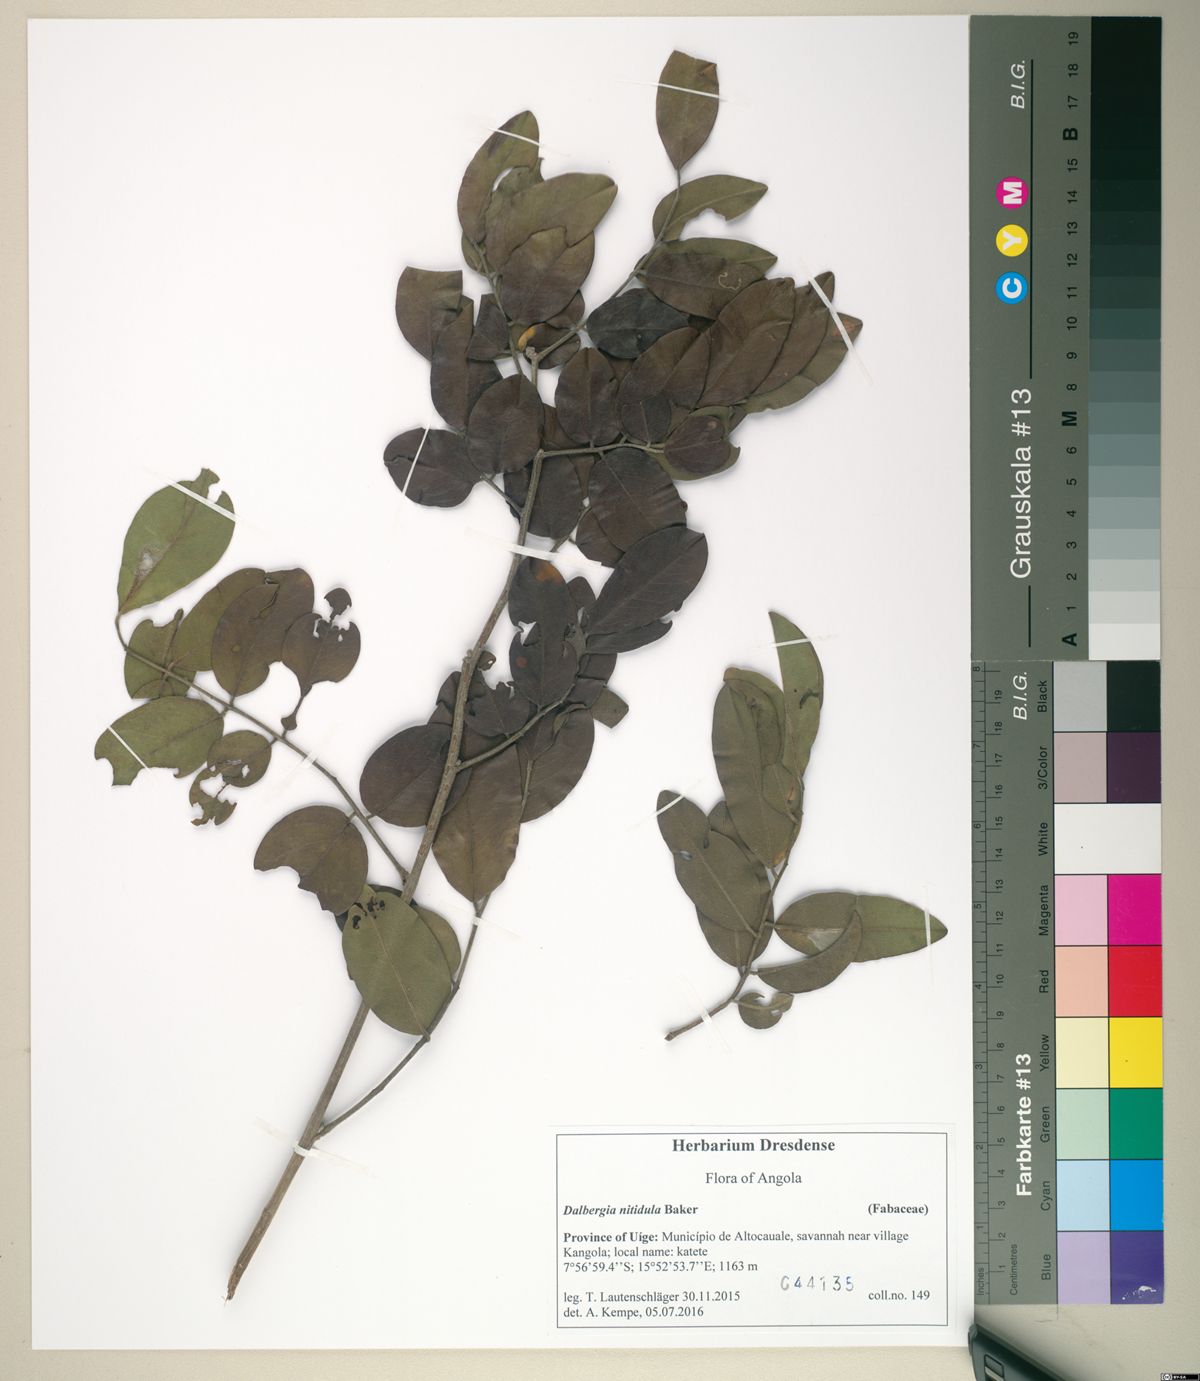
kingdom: Plantae
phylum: Tracheophyta
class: Magnoliopsida
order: Fabales
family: Fabaceae
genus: Dalbergia
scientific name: Dalbergia nitidula
